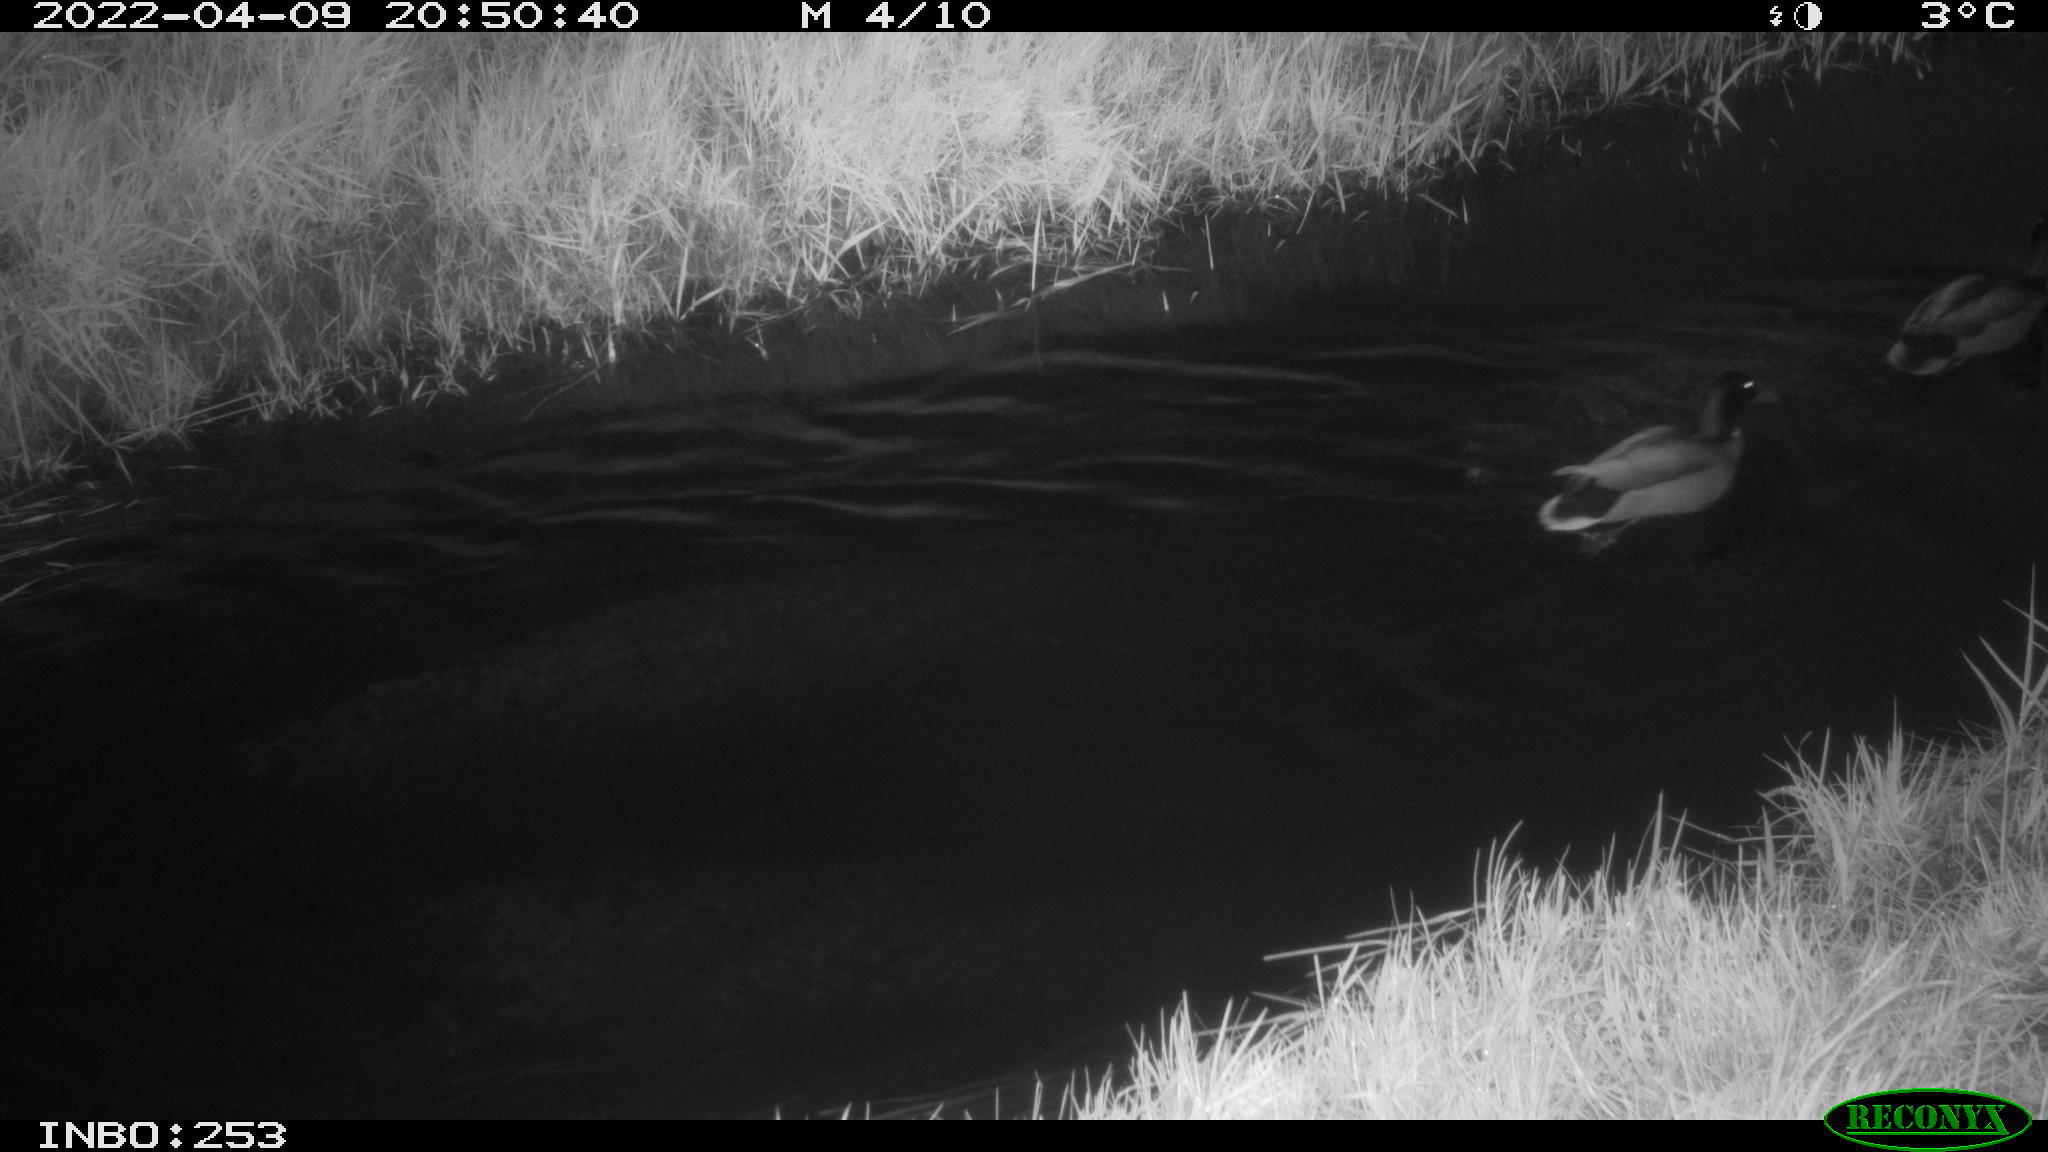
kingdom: Animalia
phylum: Chordata
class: Aves
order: Anseriformes
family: Anatidae
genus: Anas
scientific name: Anas platyrhynchos
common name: Mallard
